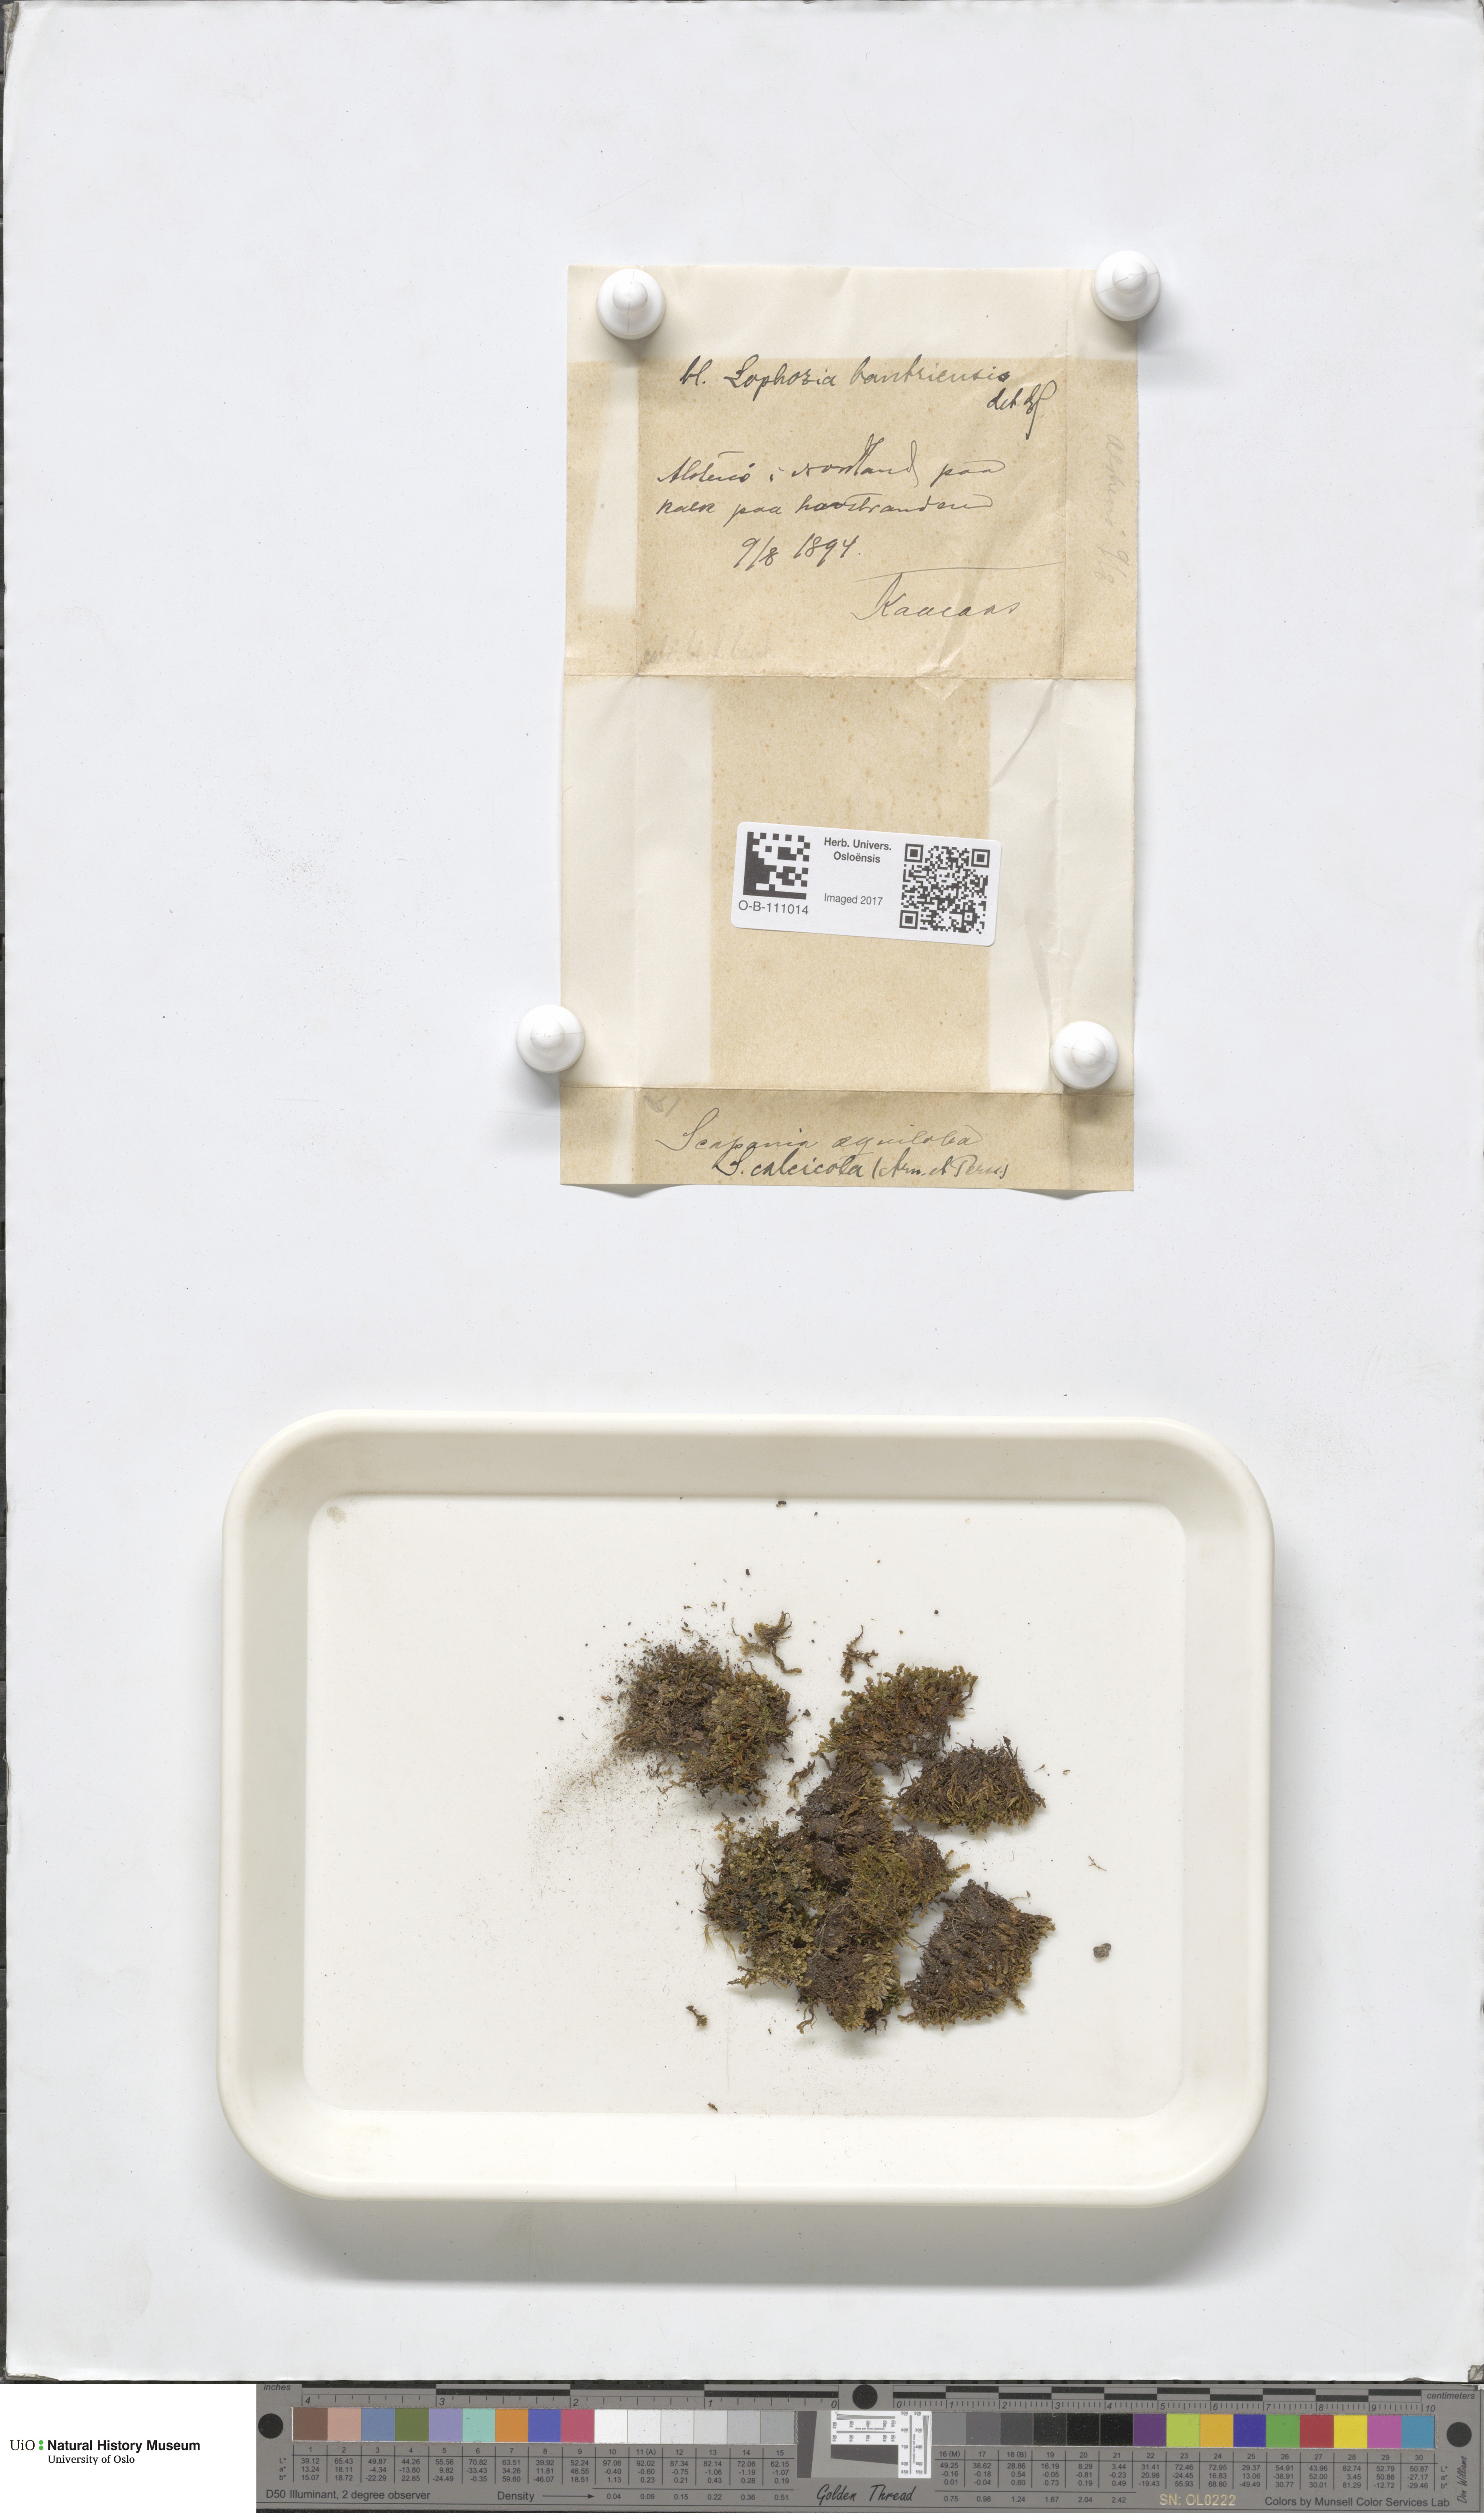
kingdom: Plantae
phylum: Marchantiophyta
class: Jungermanniopsida
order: Jungermanniales
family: Scapaniaceae
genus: Scapania
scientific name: Scapania calcicola
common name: Calcicolous earwort
